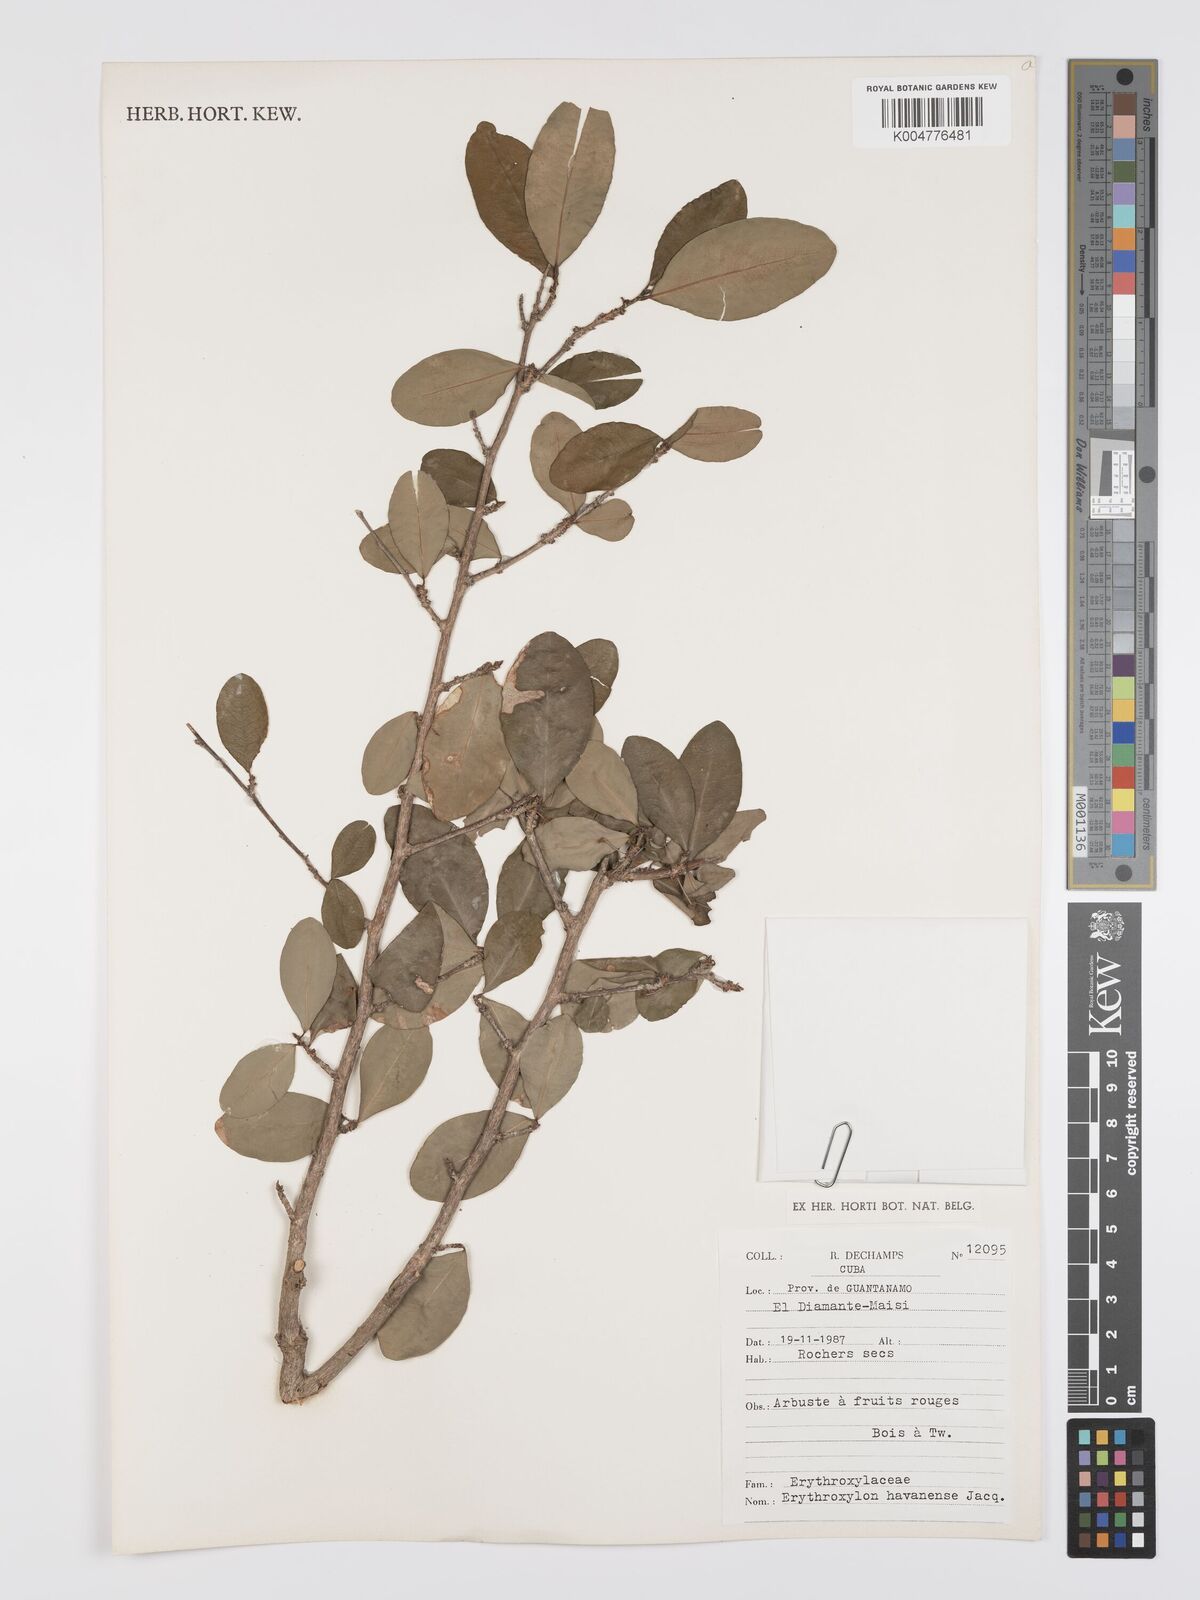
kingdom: Plantae
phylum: Tracheophyta
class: Magnoliopsida
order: Malpighiales
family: Erythroxylaceae
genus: Erythroxylum
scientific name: Erythroxylum
